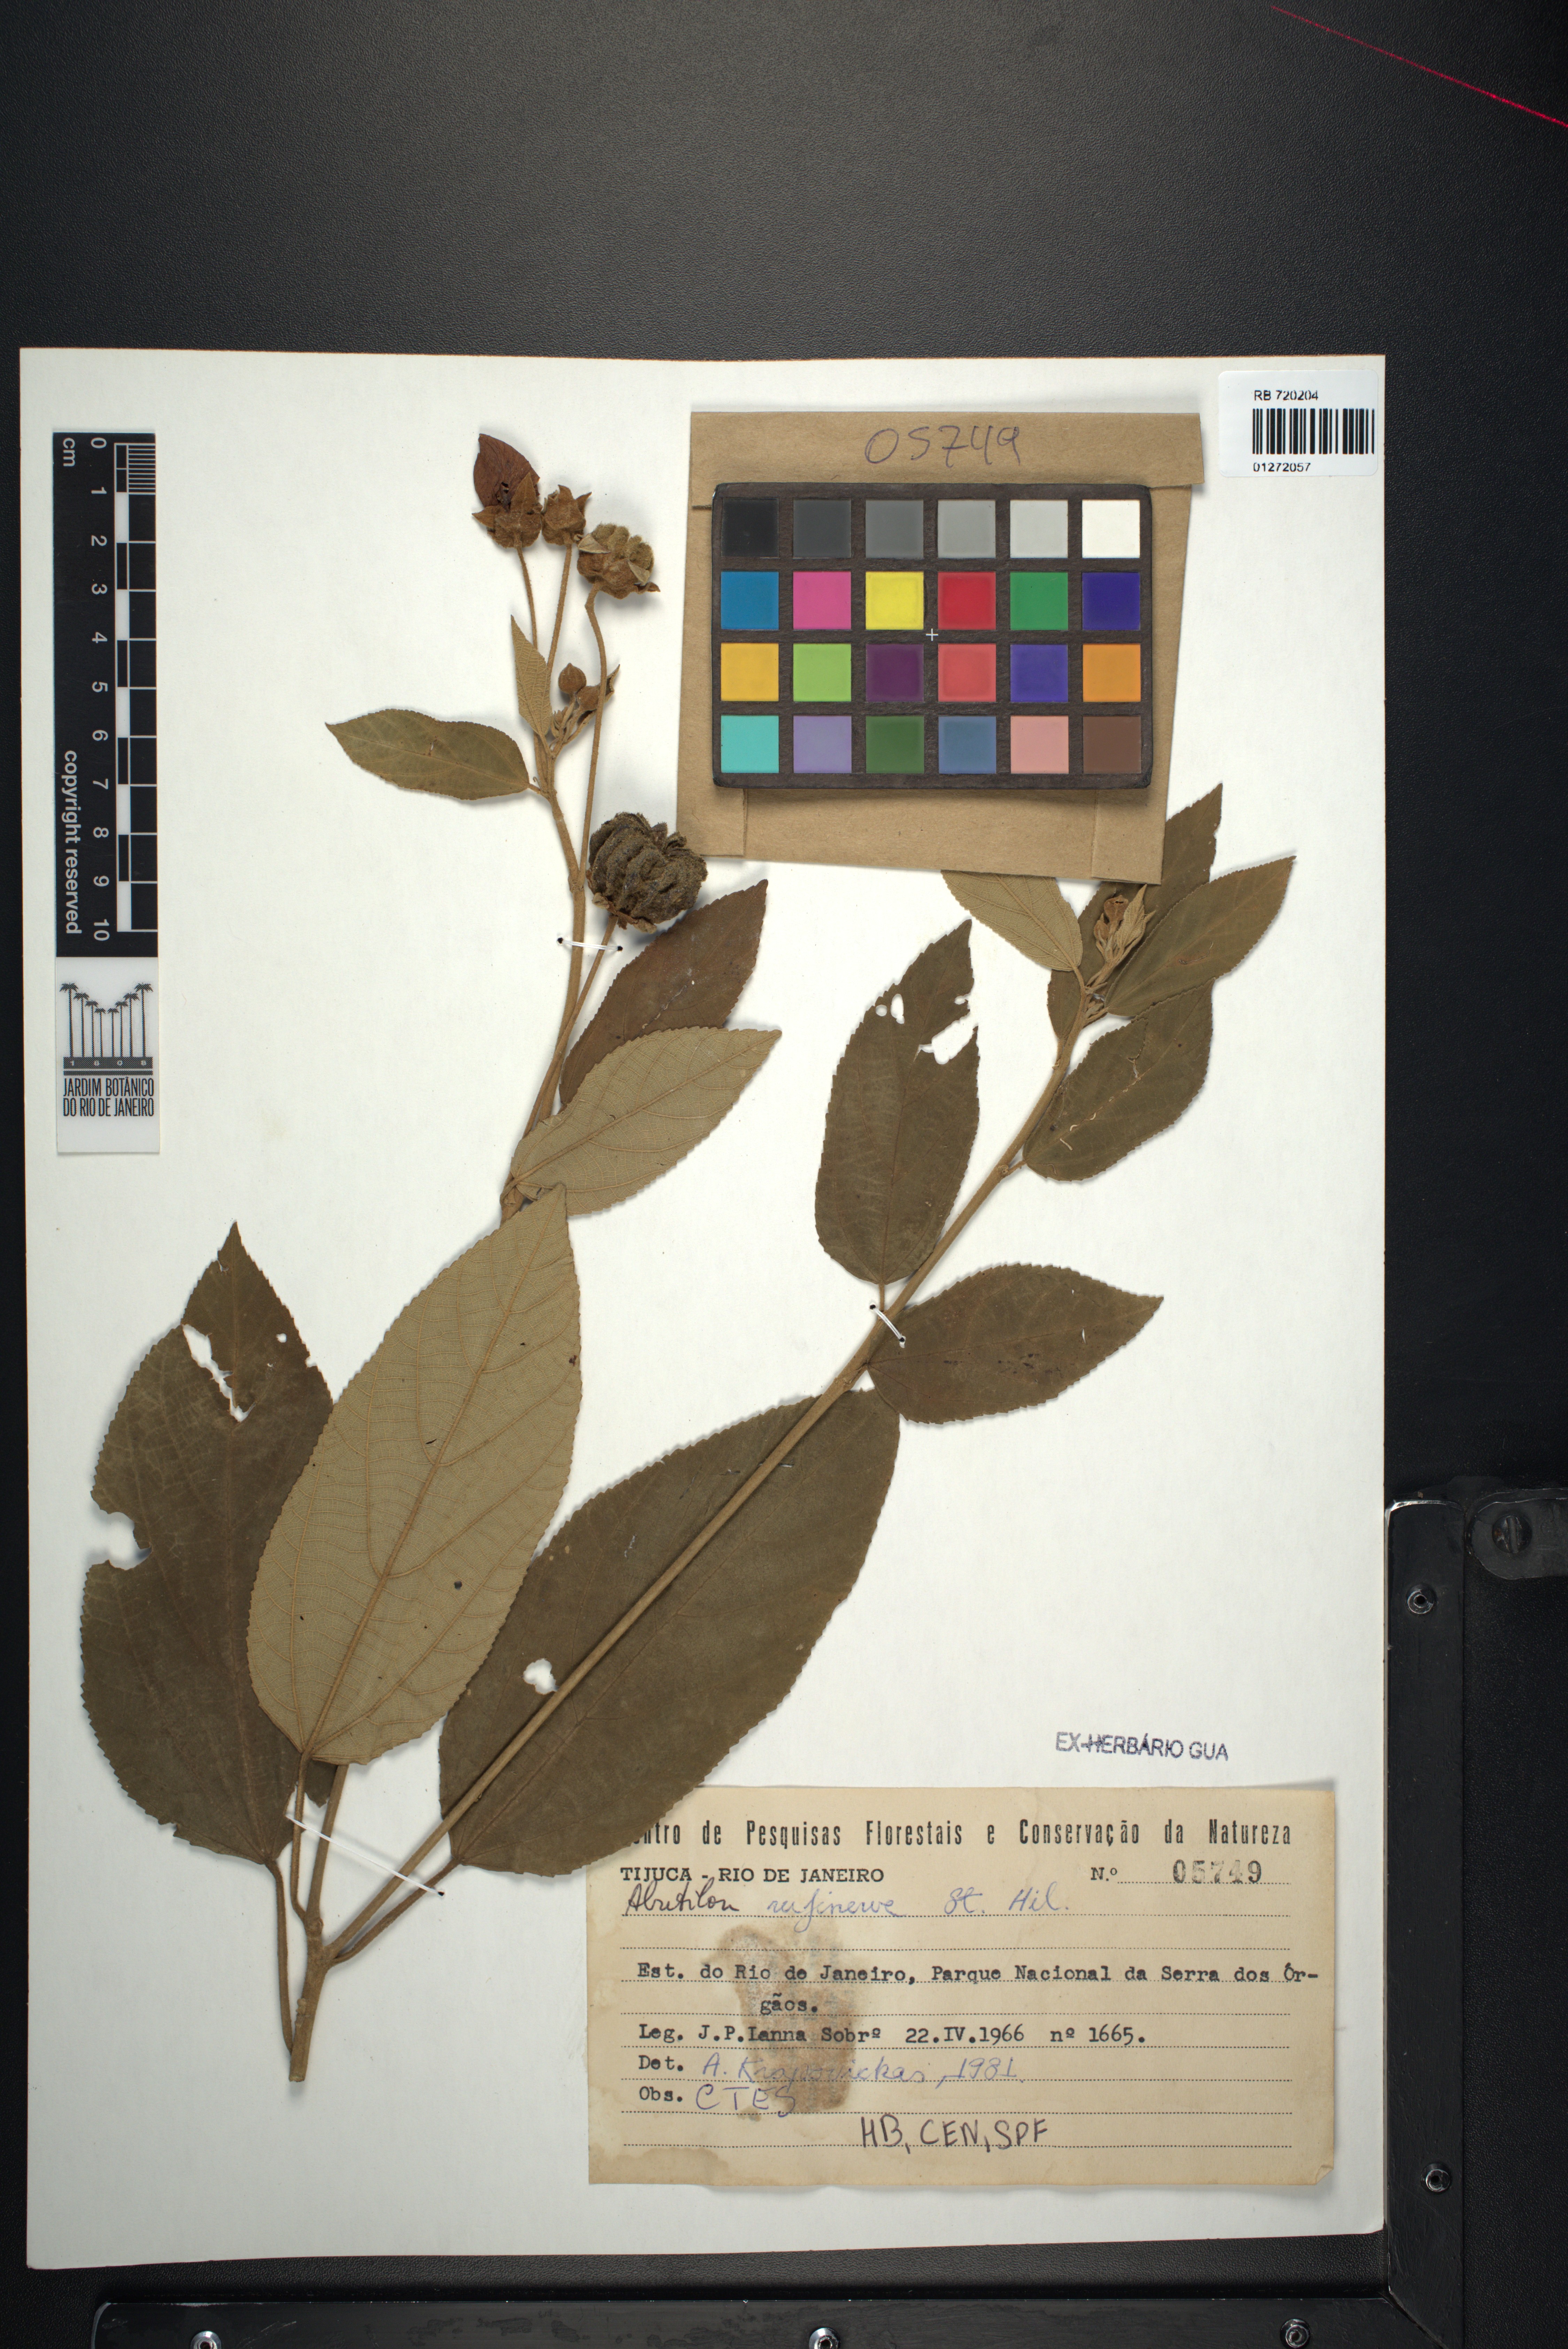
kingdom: Plantae
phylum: Tracheophyta
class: Magnoliopsida
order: Malvales
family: Malvaceae
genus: Callianthe
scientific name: Callianthe rufinerva
